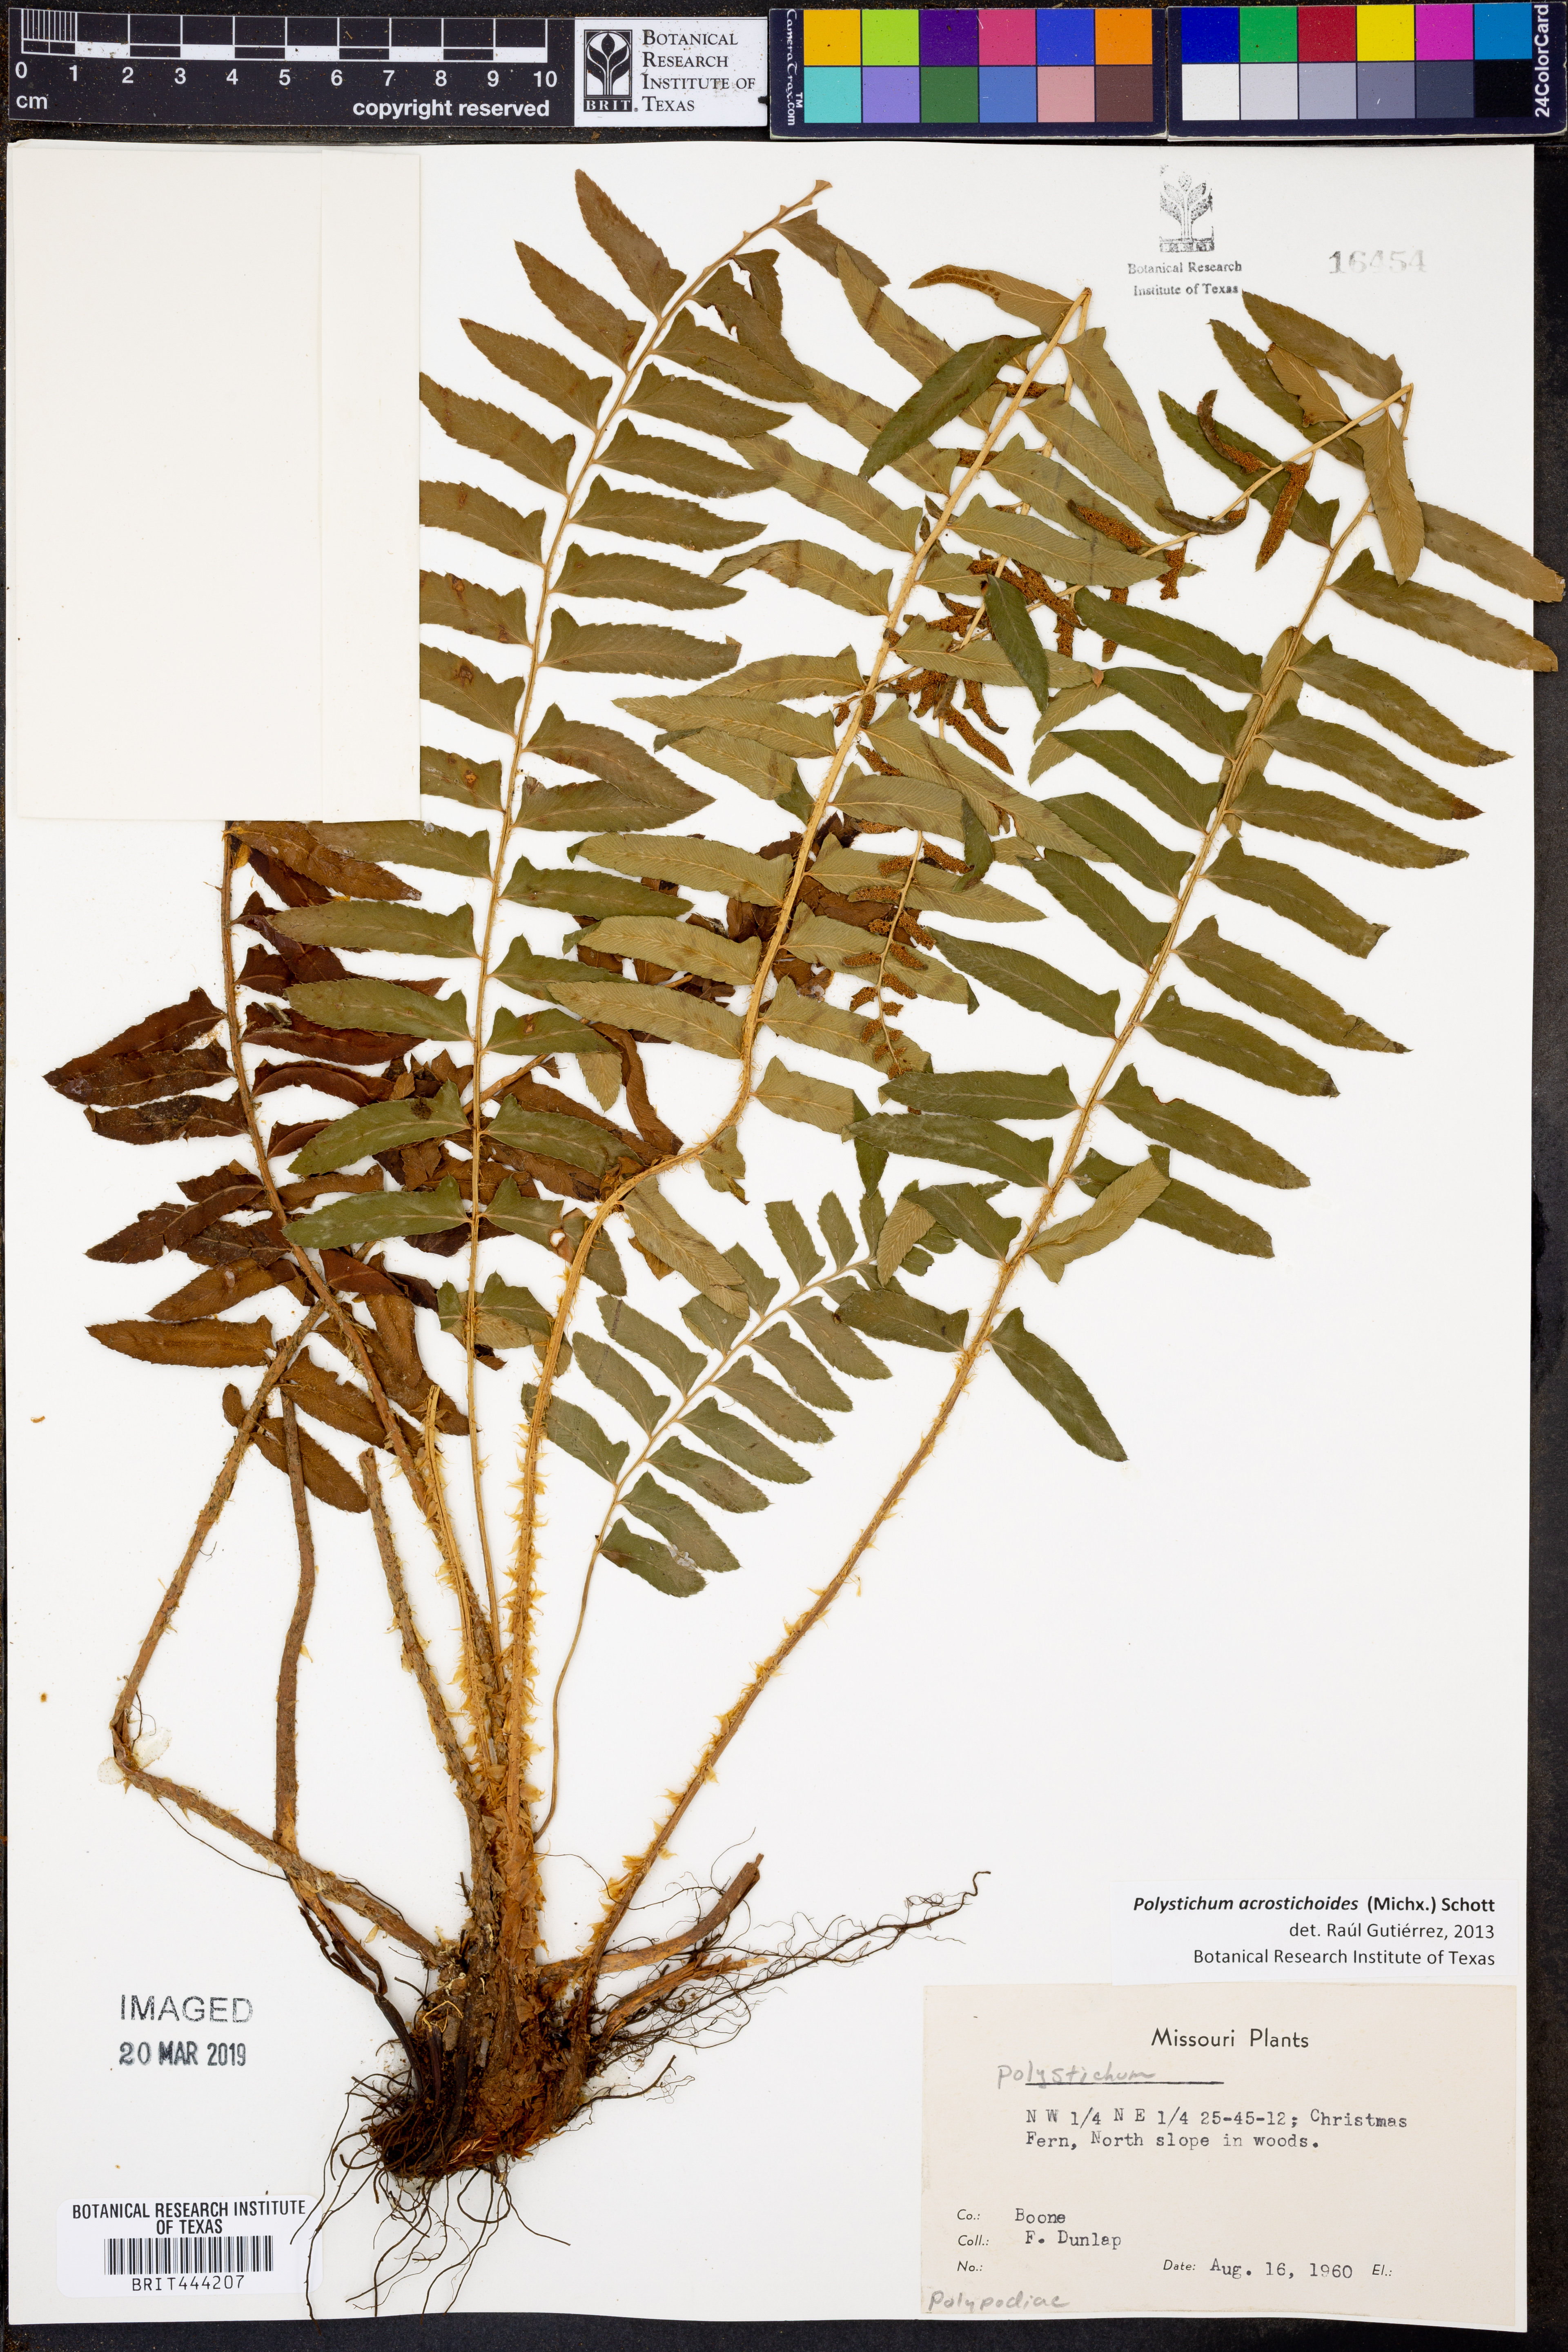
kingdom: Plantae
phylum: Tracheophyta
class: Polypodiopsida
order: Polypodiales
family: Dryopteridaceae
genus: Polystichum
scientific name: Polystichum acrostichoides
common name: Christmas fern
